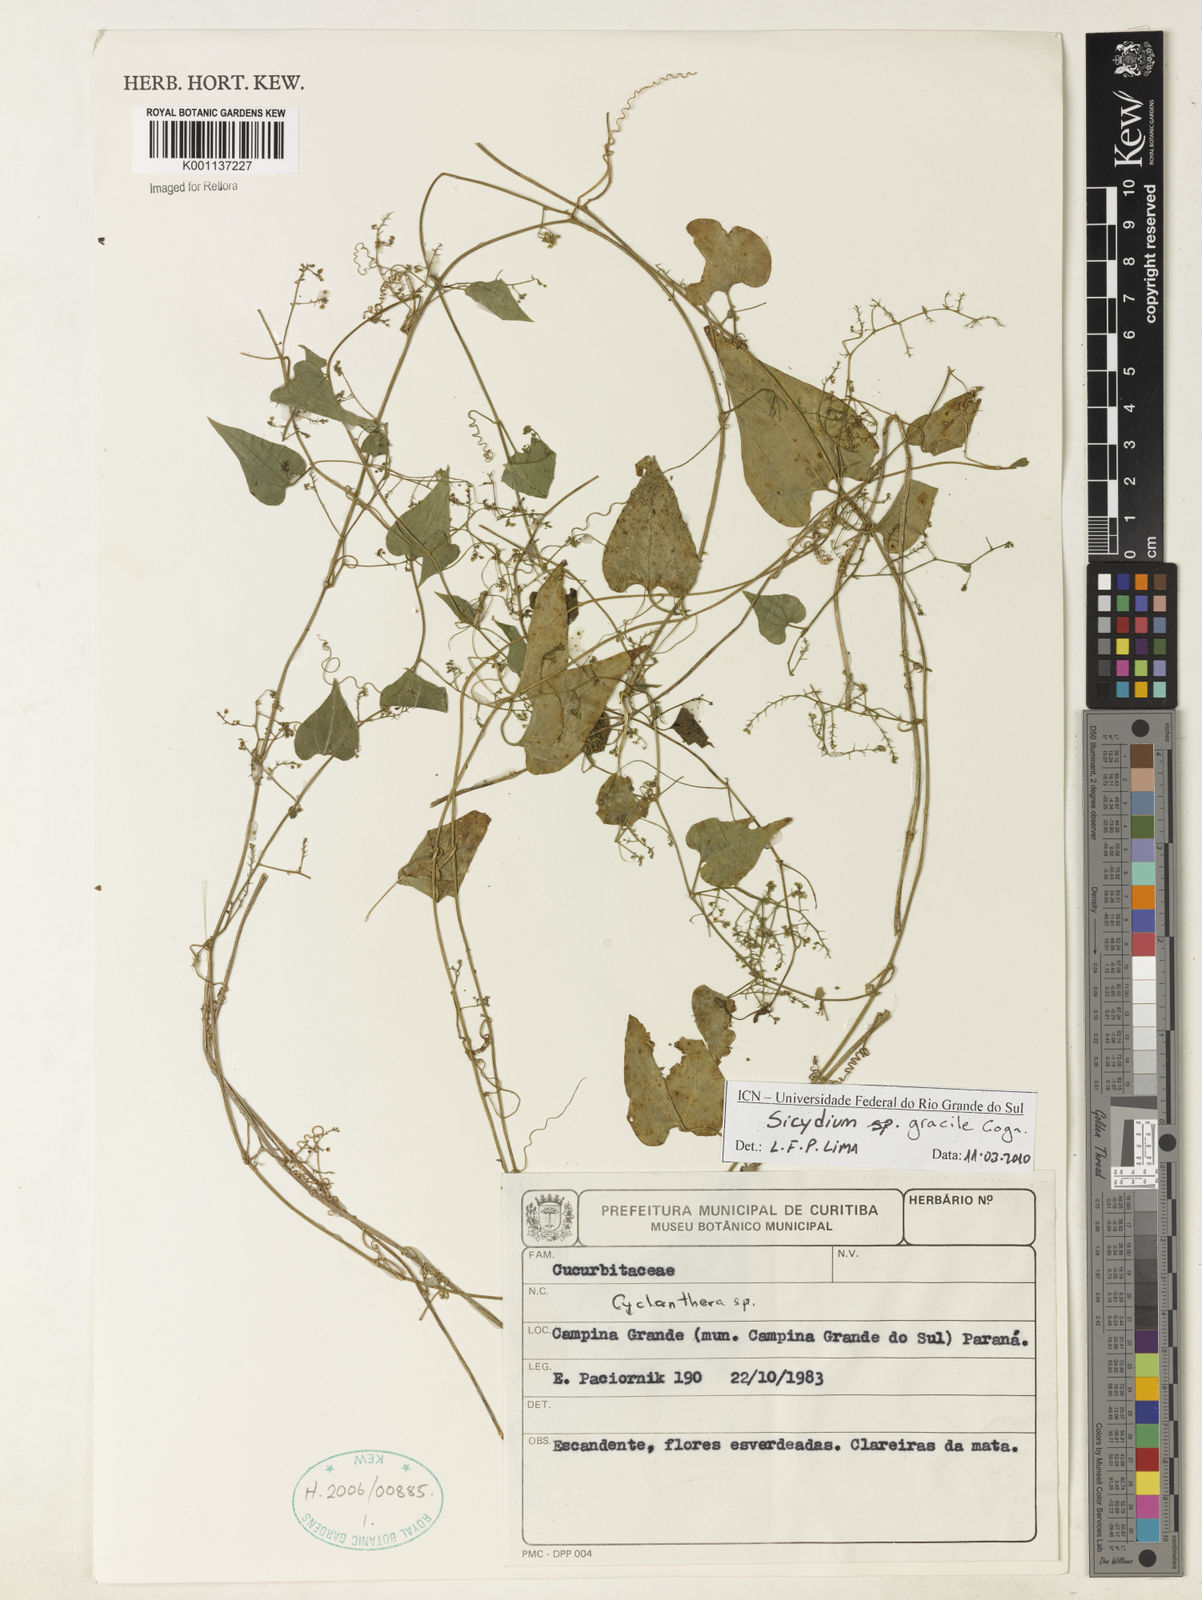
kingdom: Plantae
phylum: Tracheophyta
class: Magnoliopsida
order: Cucurbitales
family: Cucurbitaceae
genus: Sicydium
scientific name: Sicydium gracile
